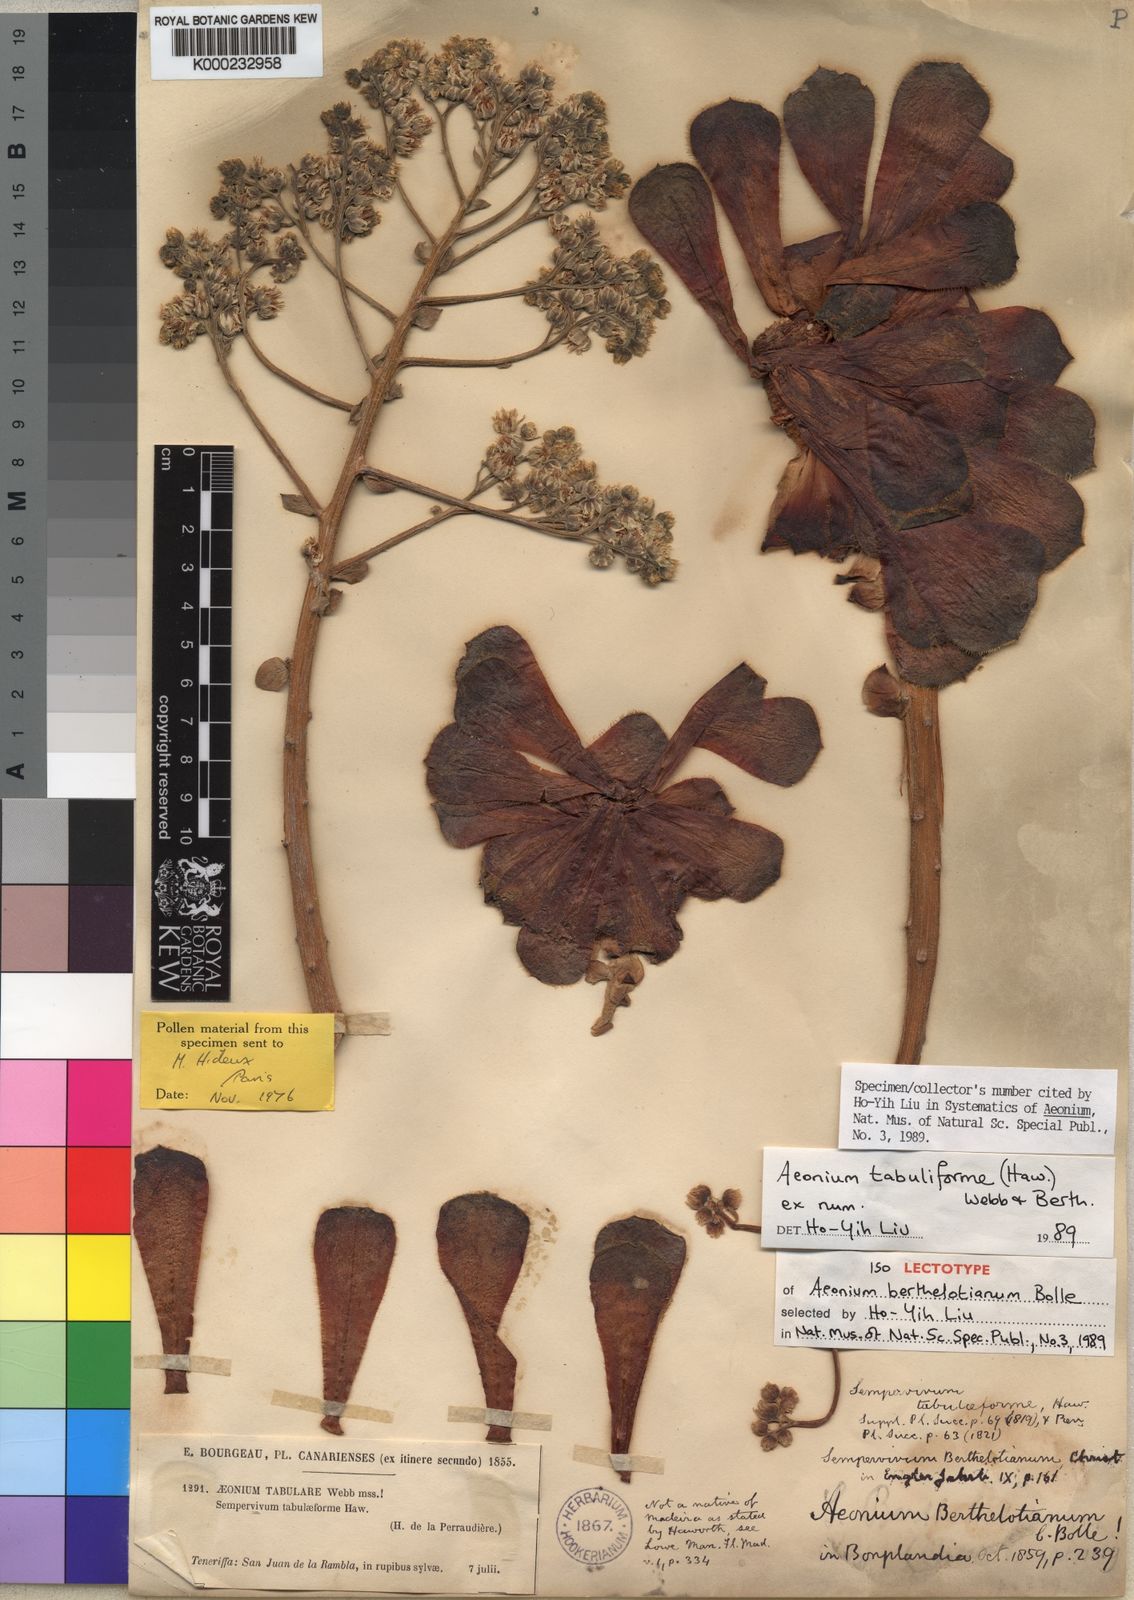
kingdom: Plantae
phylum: Tracheophyta
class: Magnoliopsida
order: Saxifragales
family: Crassulaceae
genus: Aeonium
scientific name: Aeonium tabulaeforme
